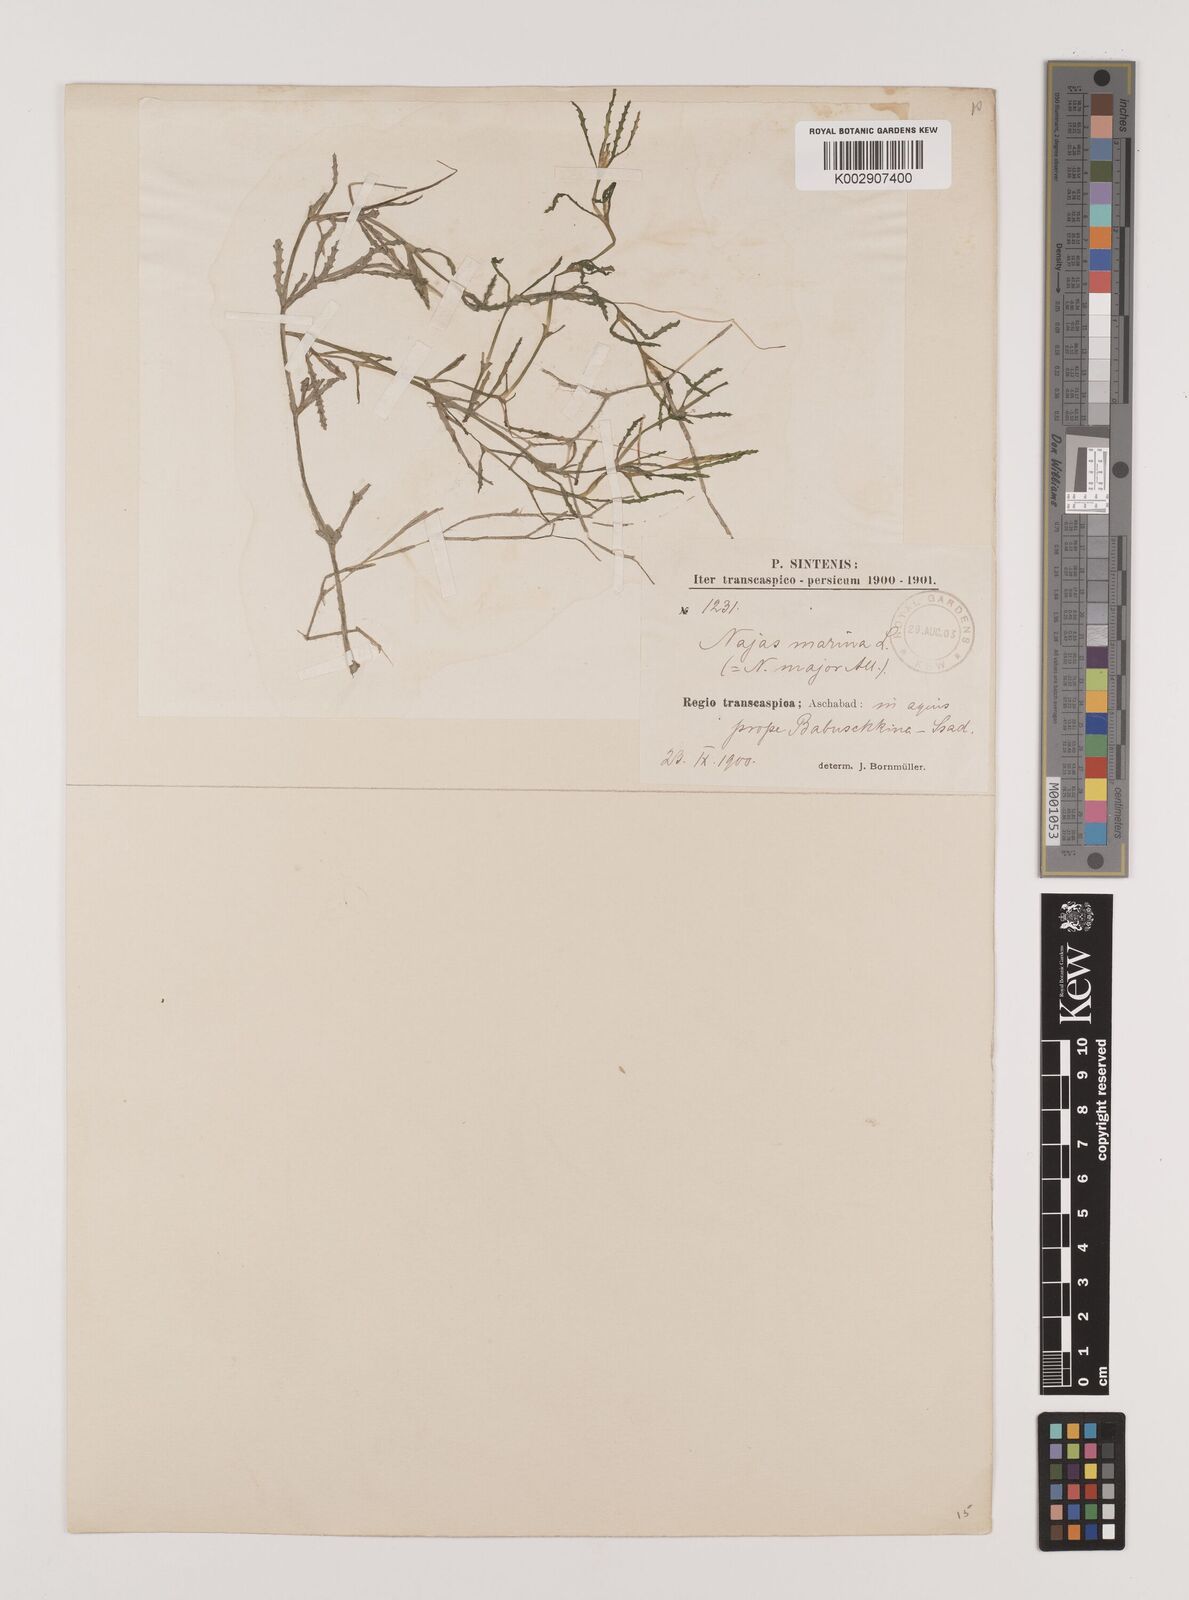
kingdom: Plantae
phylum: Tracheophyta
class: Liliopsida
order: Alismatales
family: Hydrocharitaceae
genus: Najas
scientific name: Najas marina
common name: Holly-leaved naiad
